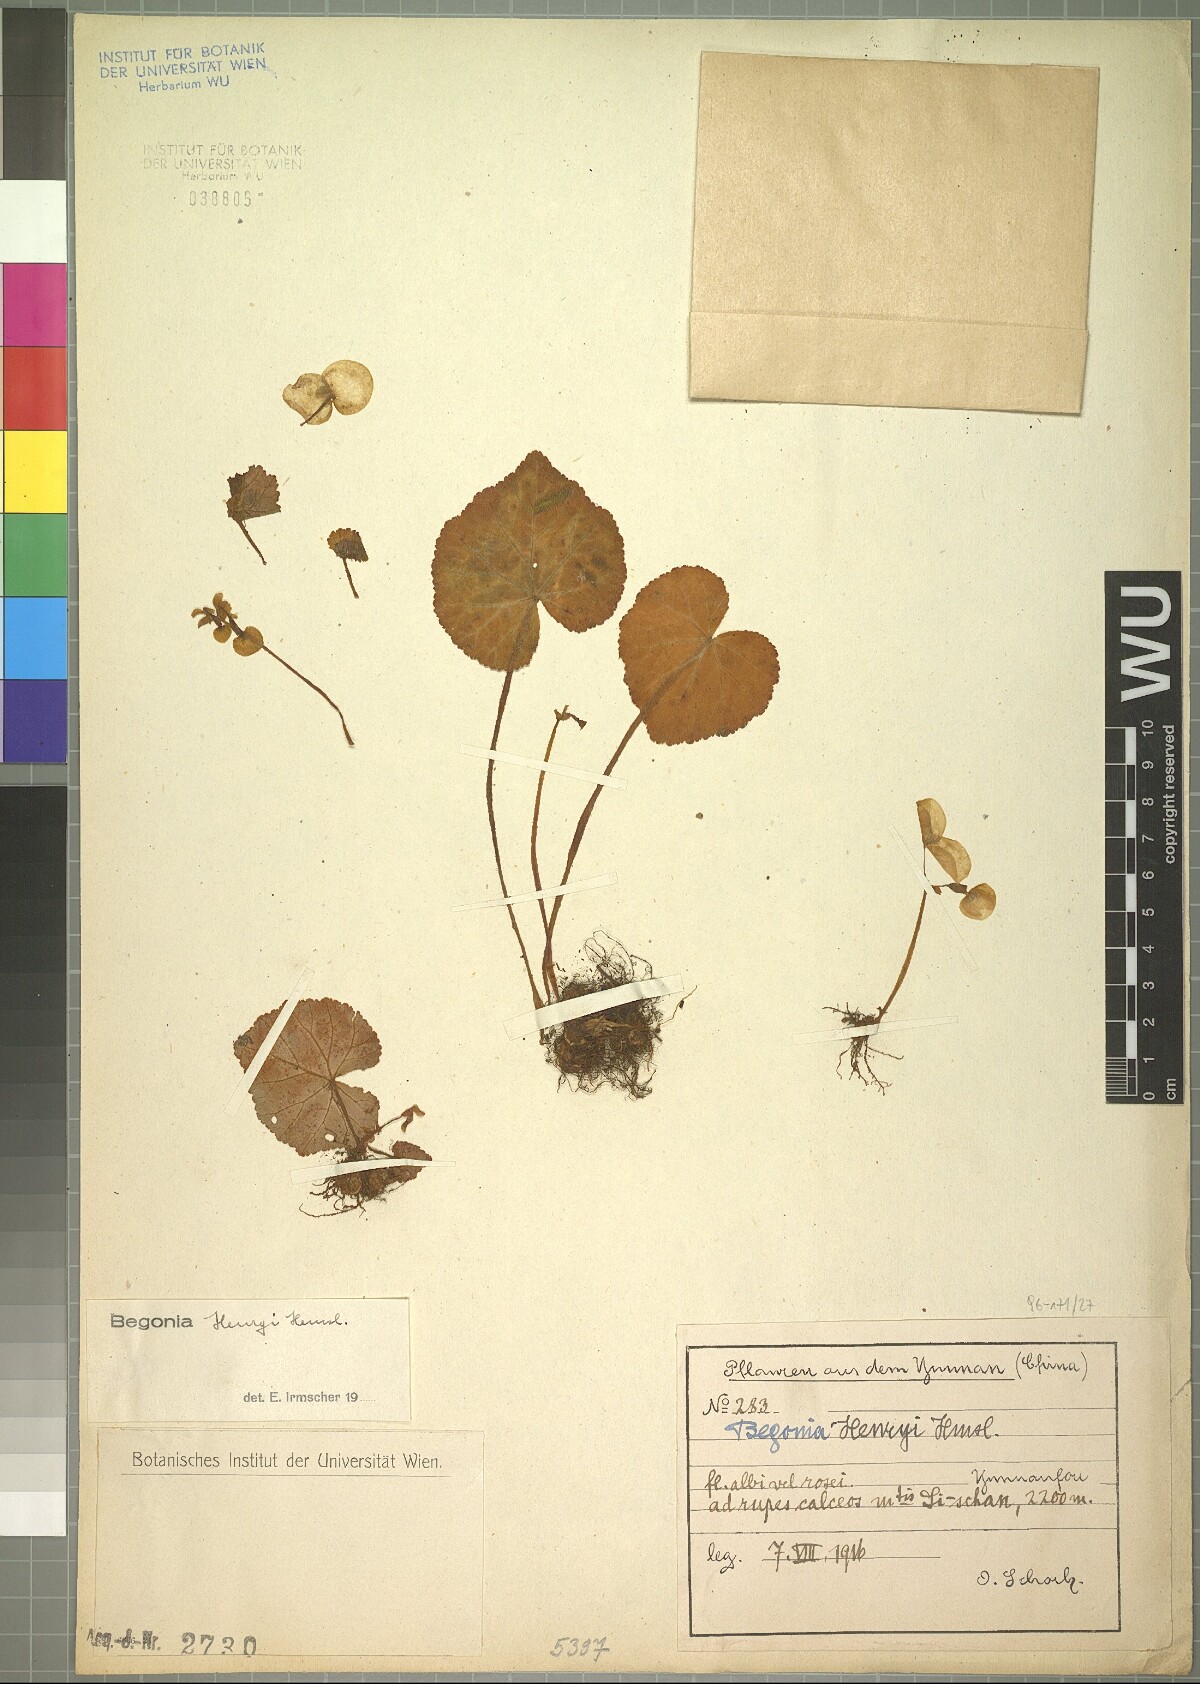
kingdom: Plantae
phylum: Tracheophyta
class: Magnoliopsida
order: Cucurbitales
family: Begoniaceae
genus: Begonia
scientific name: Begonia henryi
